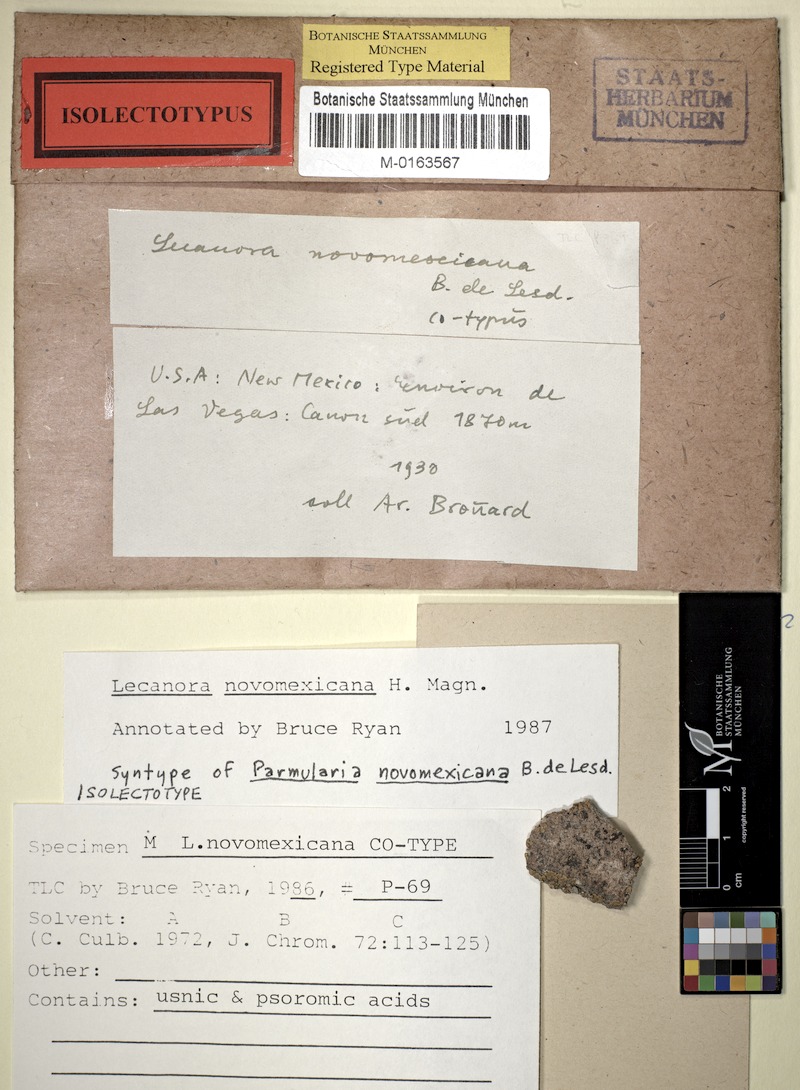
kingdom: Fungi
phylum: Ascomycota
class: Lecanoromycetes
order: Lecanorales
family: Lecanoraceae
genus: Rhizoplaca
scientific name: Rhizoplaca novomexicana
